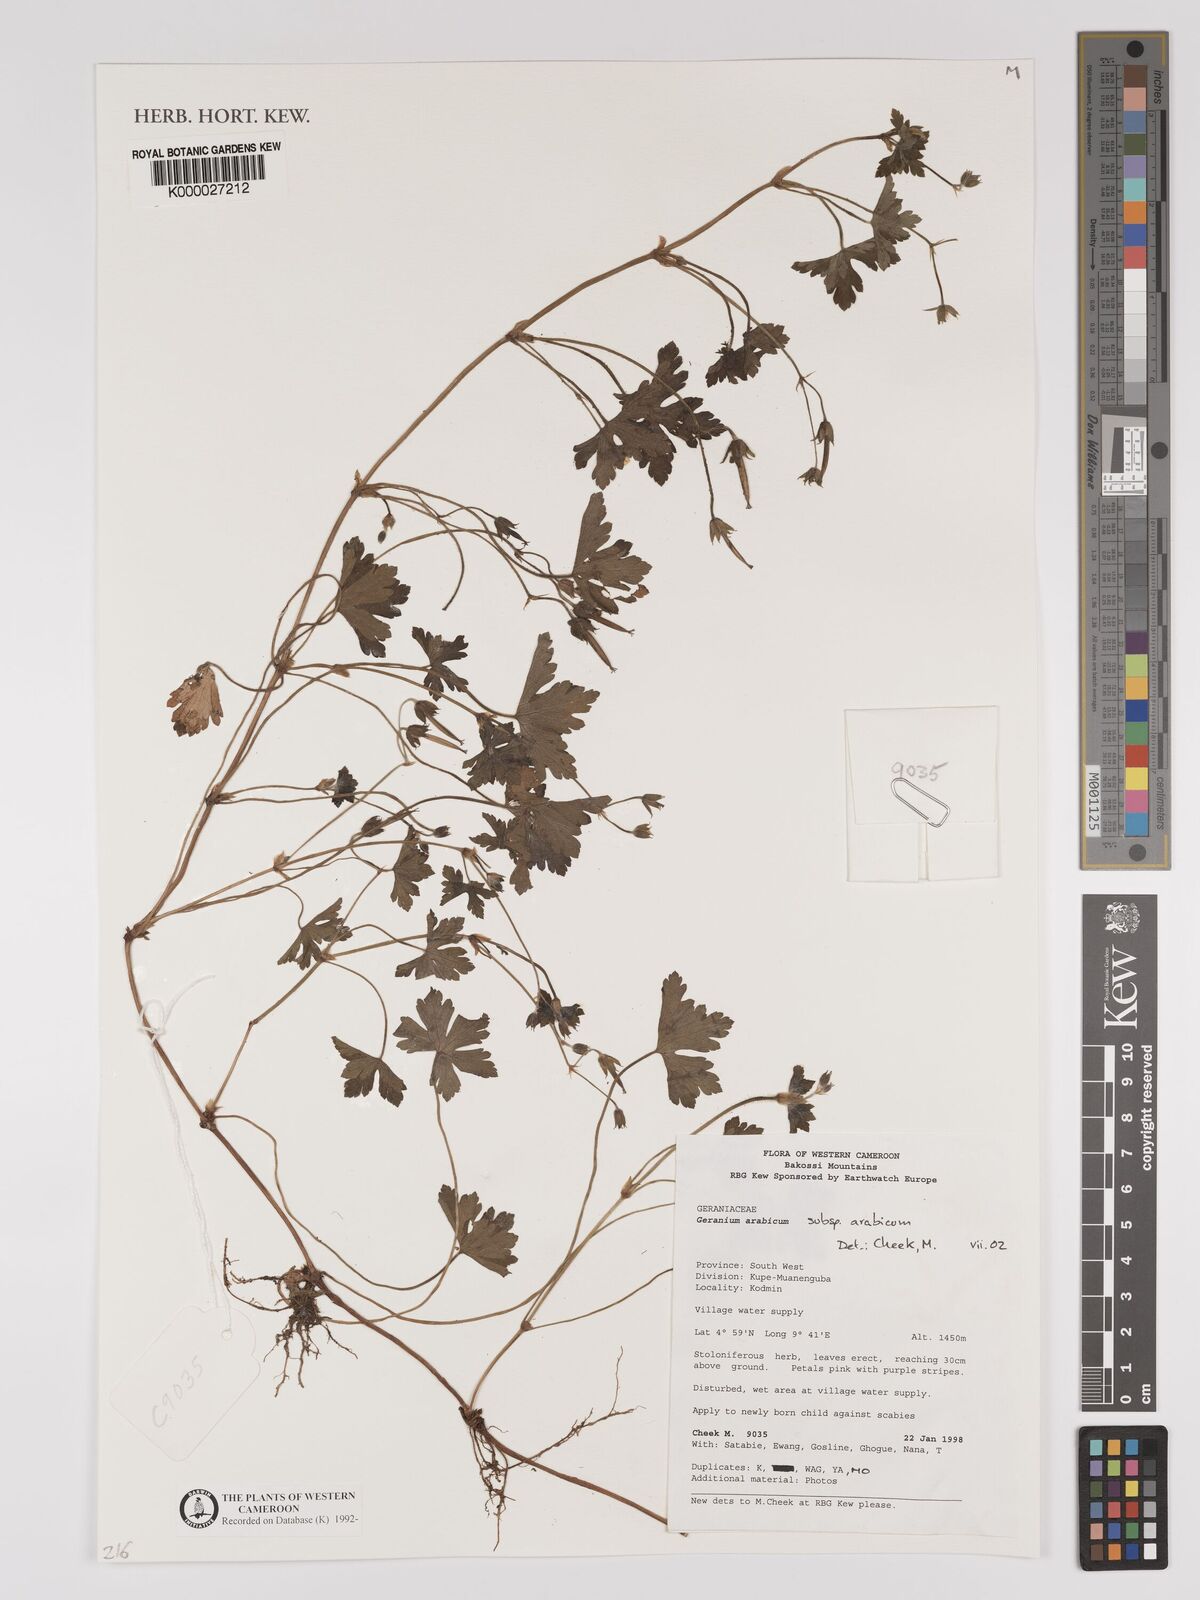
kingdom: Plantae
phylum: Tracheophyta
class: Magnoliopsida
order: Geraniales
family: Geraniaceae
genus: Geranium
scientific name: Geranium arabicum
